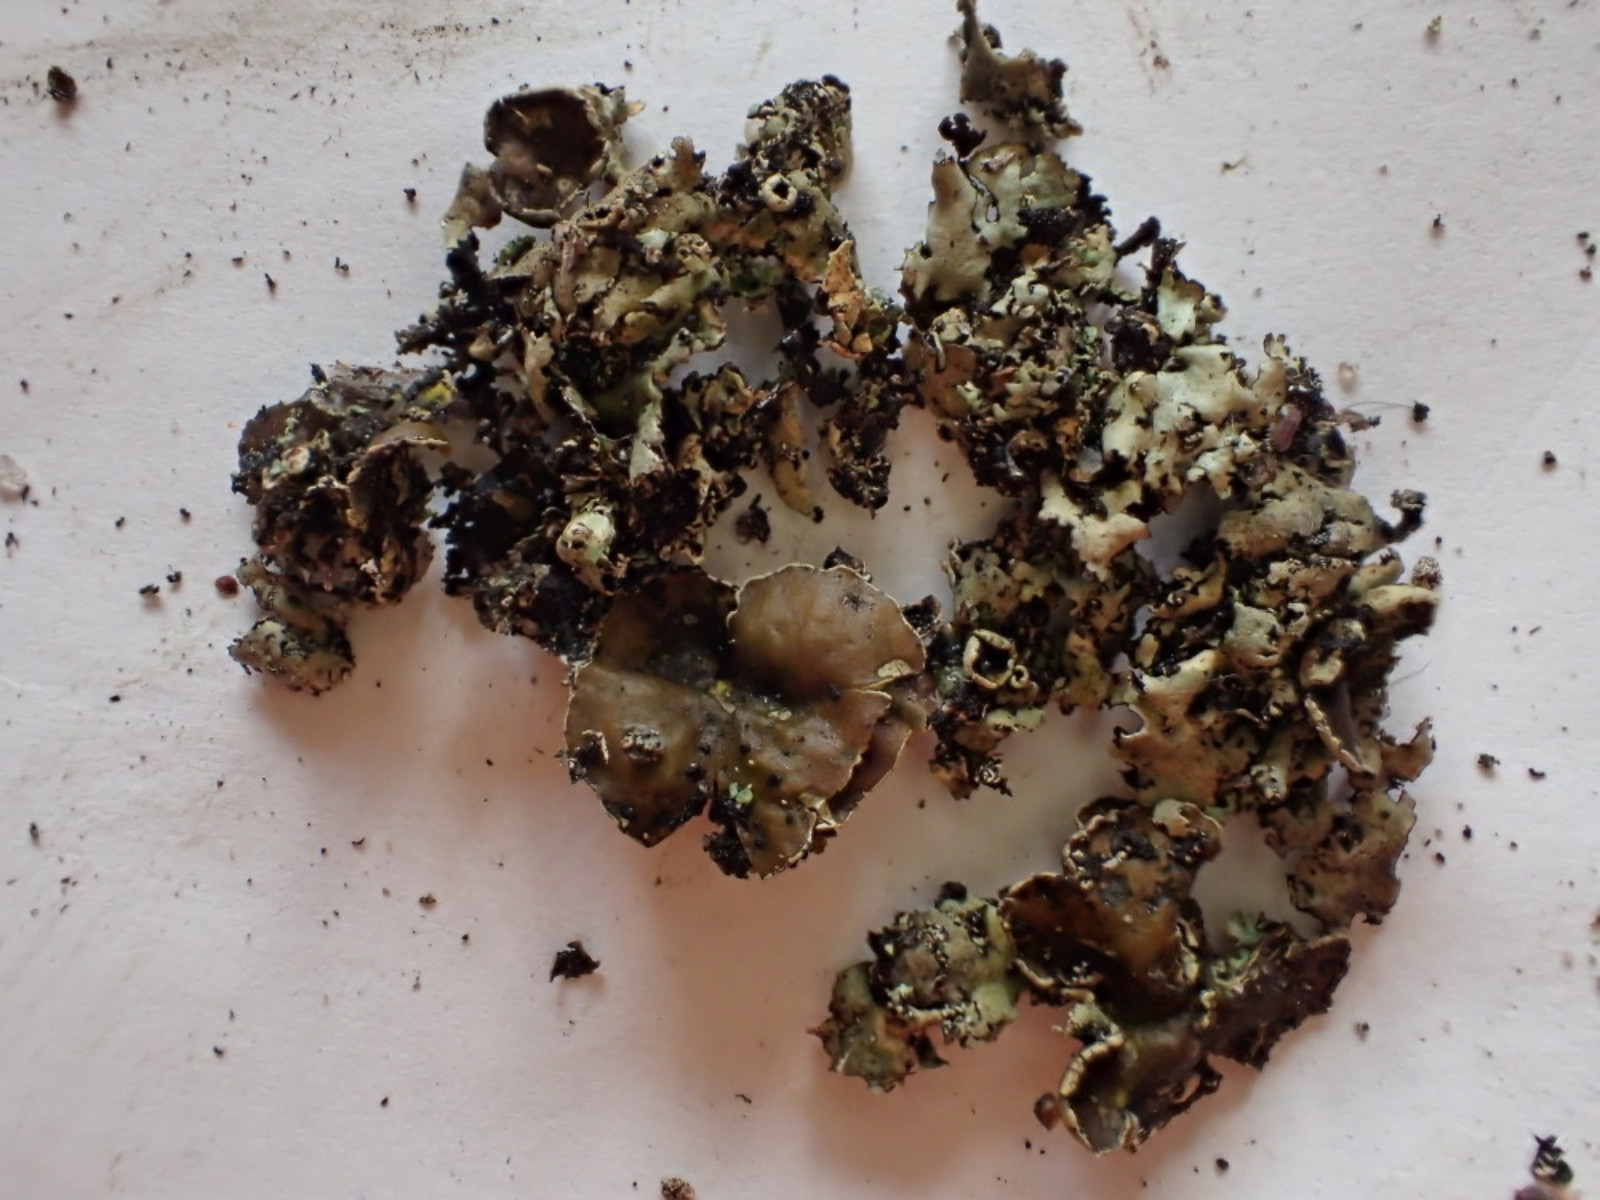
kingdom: Fungi
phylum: Ascomycota
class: Lecanoromycetes
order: Lecanorales
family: Parmeliaceae
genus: Xanthoparmelia
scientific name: Xanthoparmelia stenophylla
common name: Shingled rock shield
